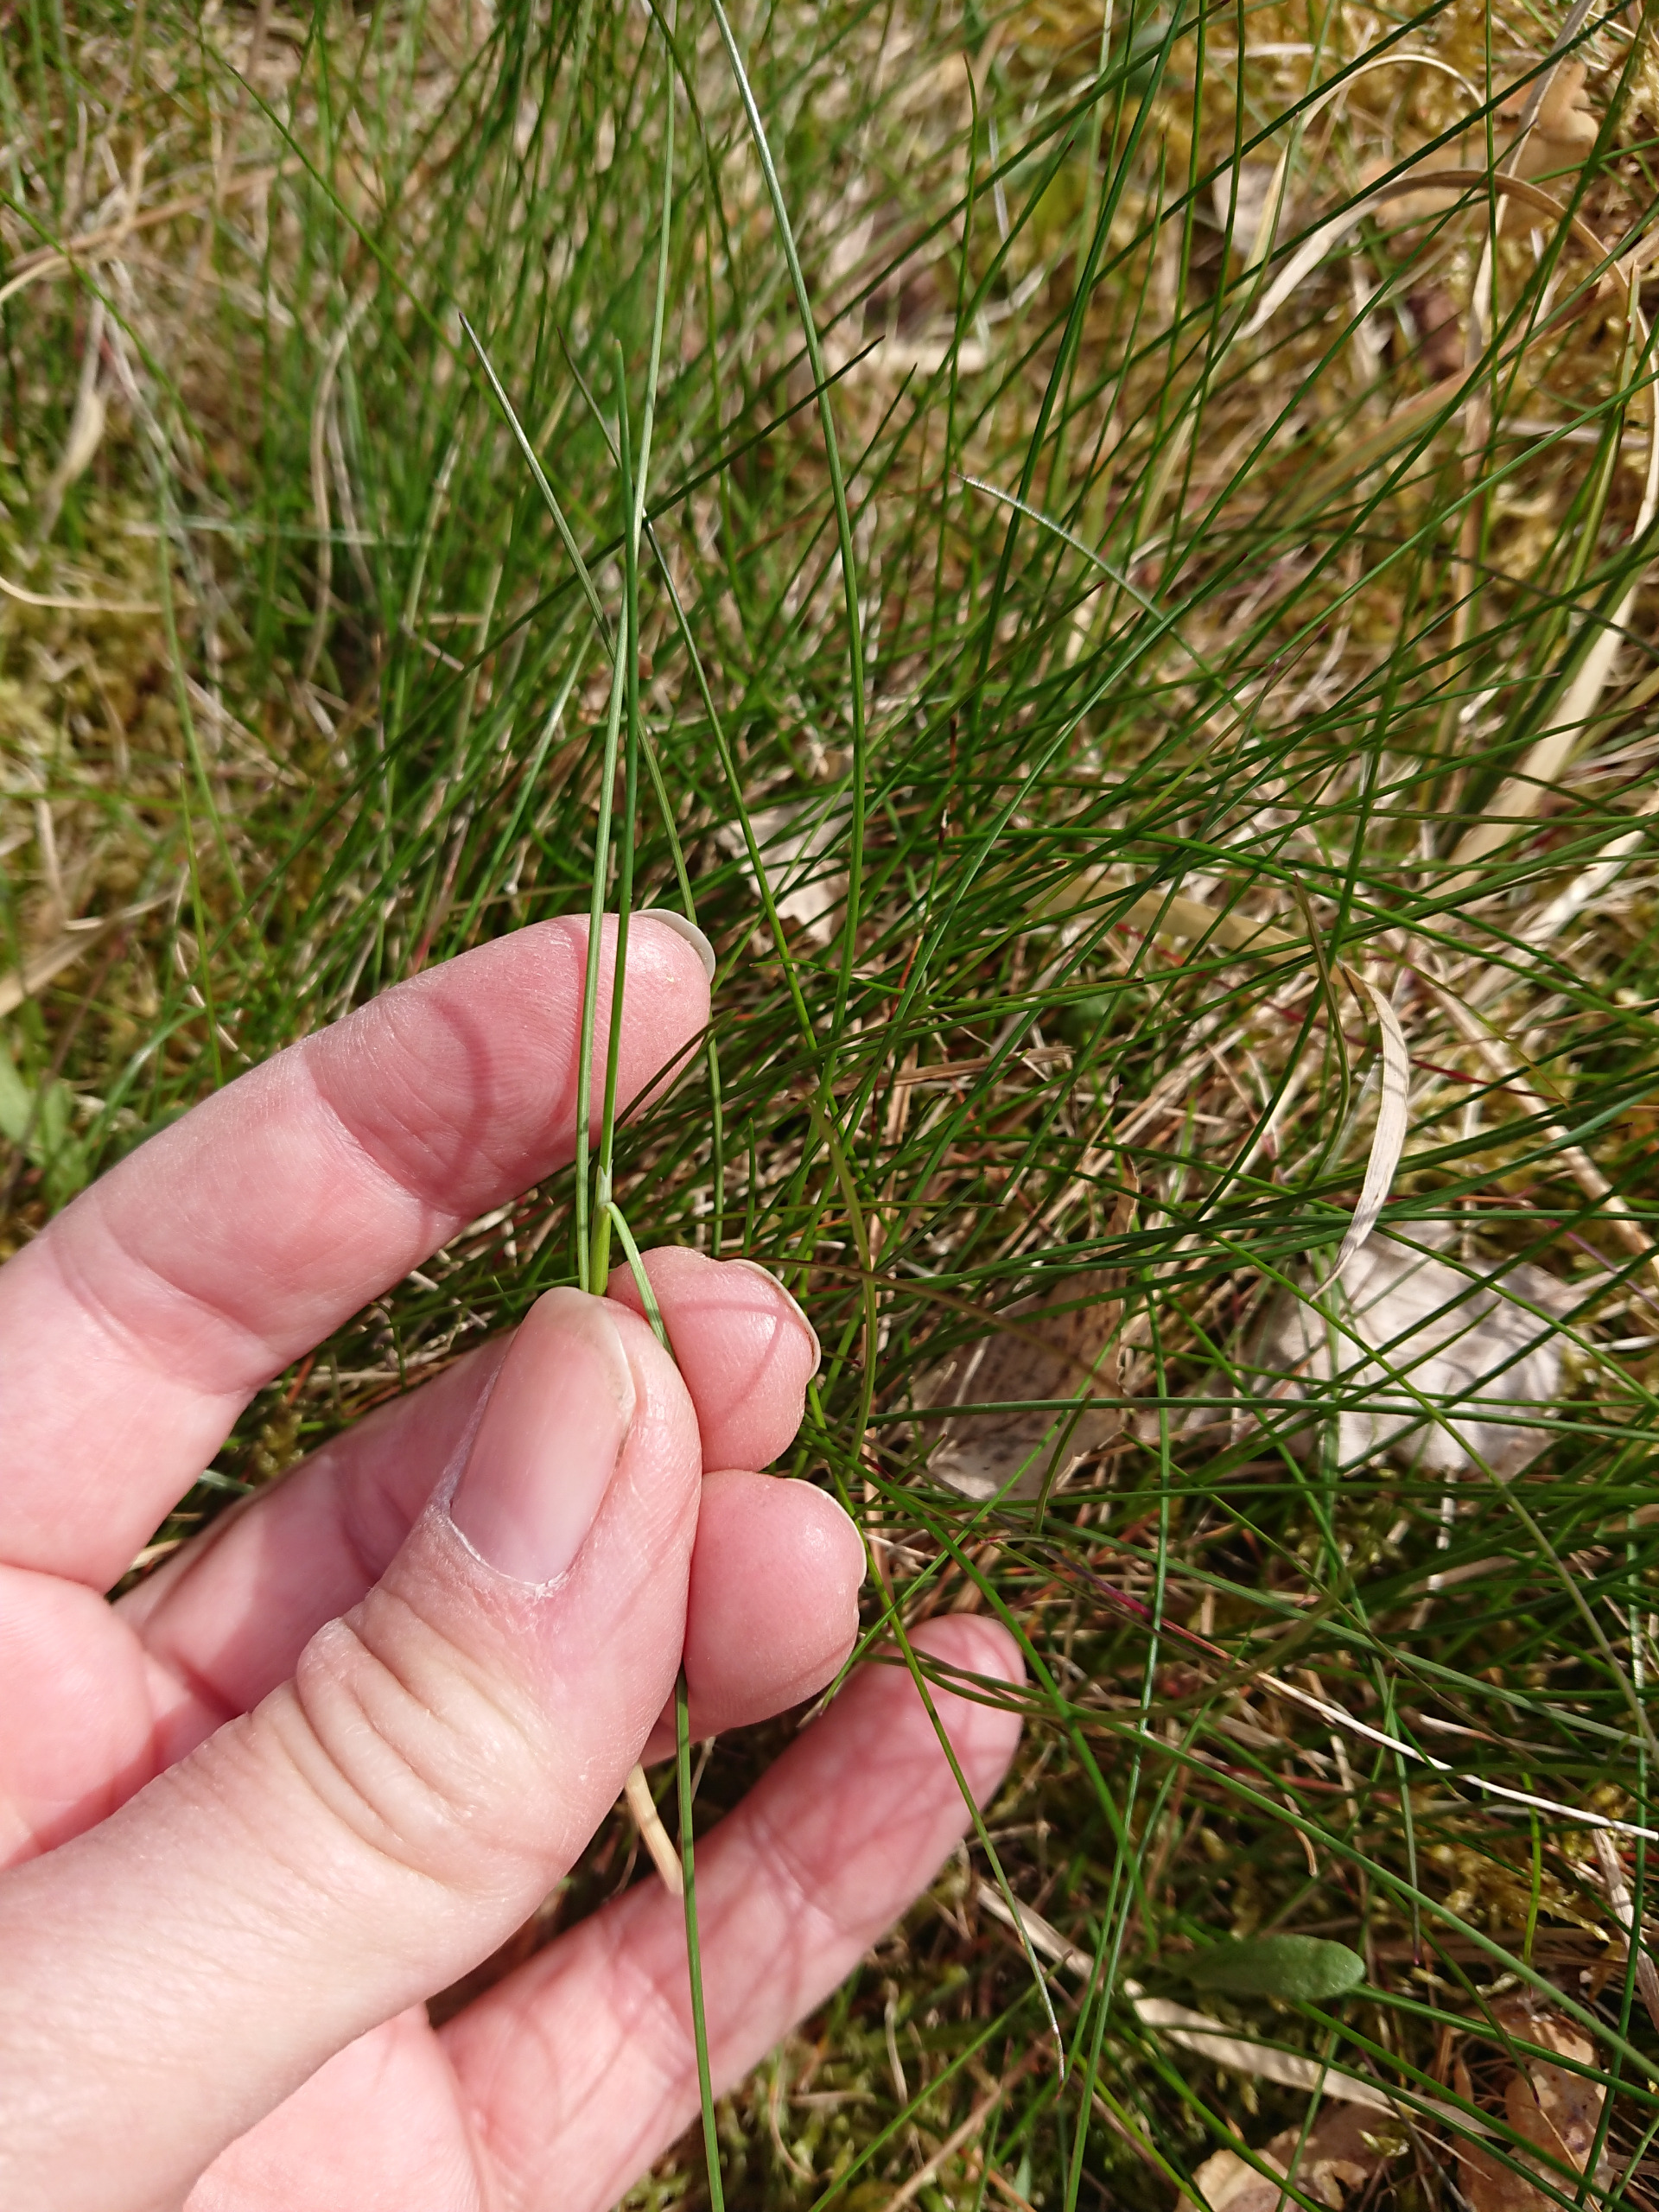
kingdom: Plantae
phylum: Tracheophyta
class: Liliopsida
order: Poales
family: Poaceae
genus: Avenella
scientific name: Avenella flexuosa
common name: Bølget bunke
